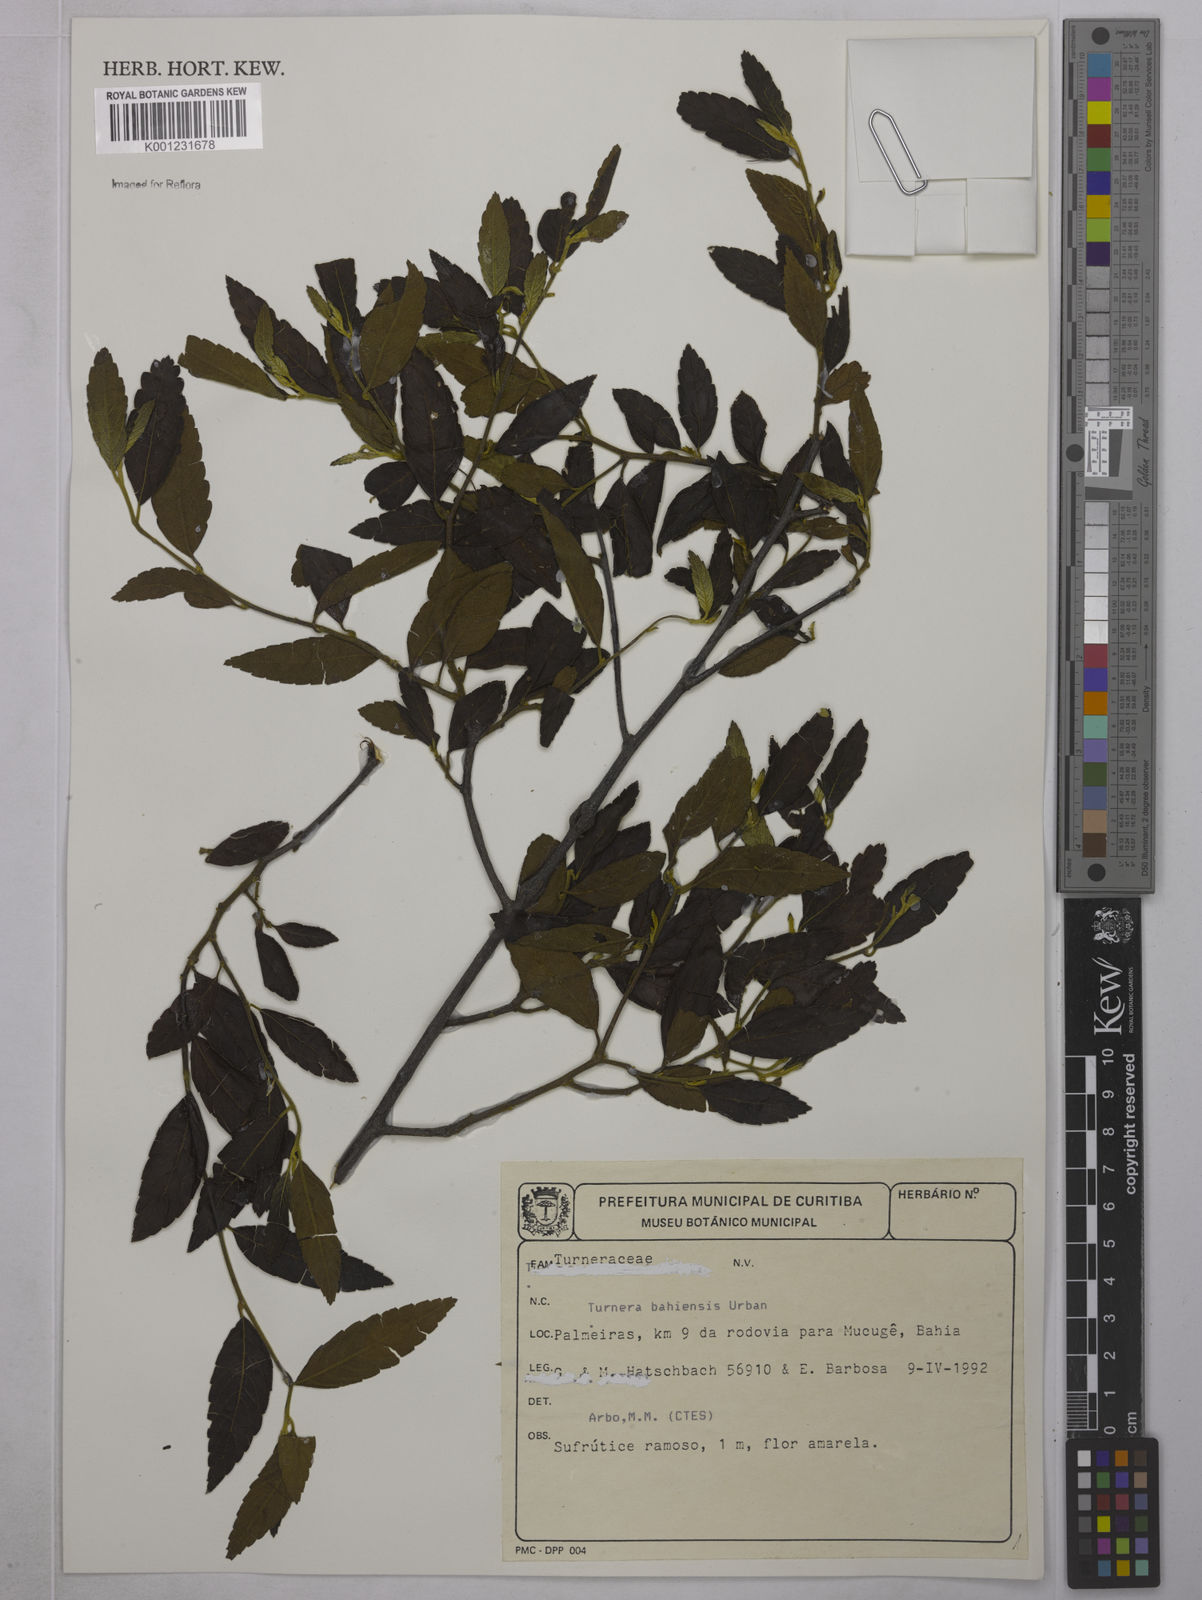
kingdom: Plantae
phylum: Tracheophyta
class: Magnoliopsida
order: Malpighiales
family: Turneraceae
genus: Turnera
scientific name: Turnera bahiensis
